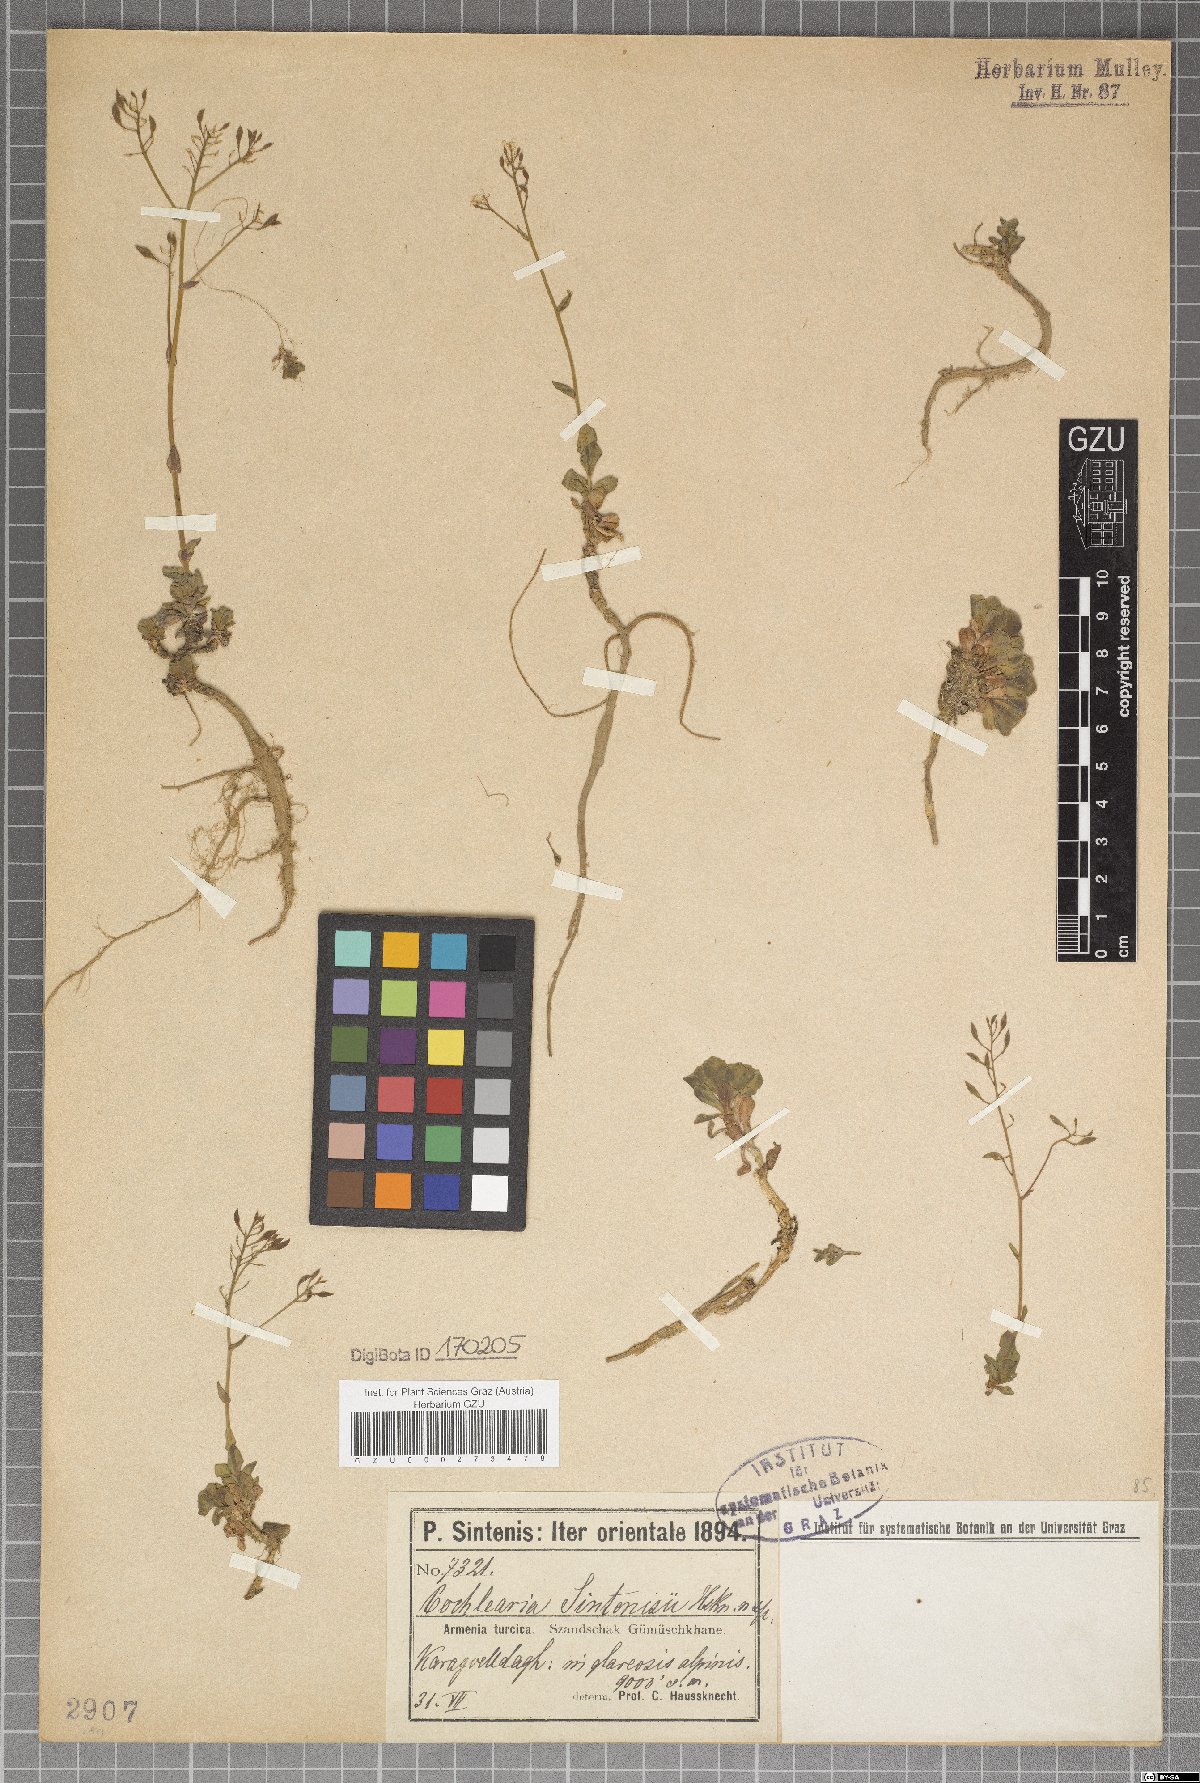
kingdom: Plantae
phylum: Tracheophyta
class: Magnoliopsida
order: Brassicales
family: Brassicaceae
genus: Pseudosempervivum
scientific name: Pseudosempervivum sintenisii
